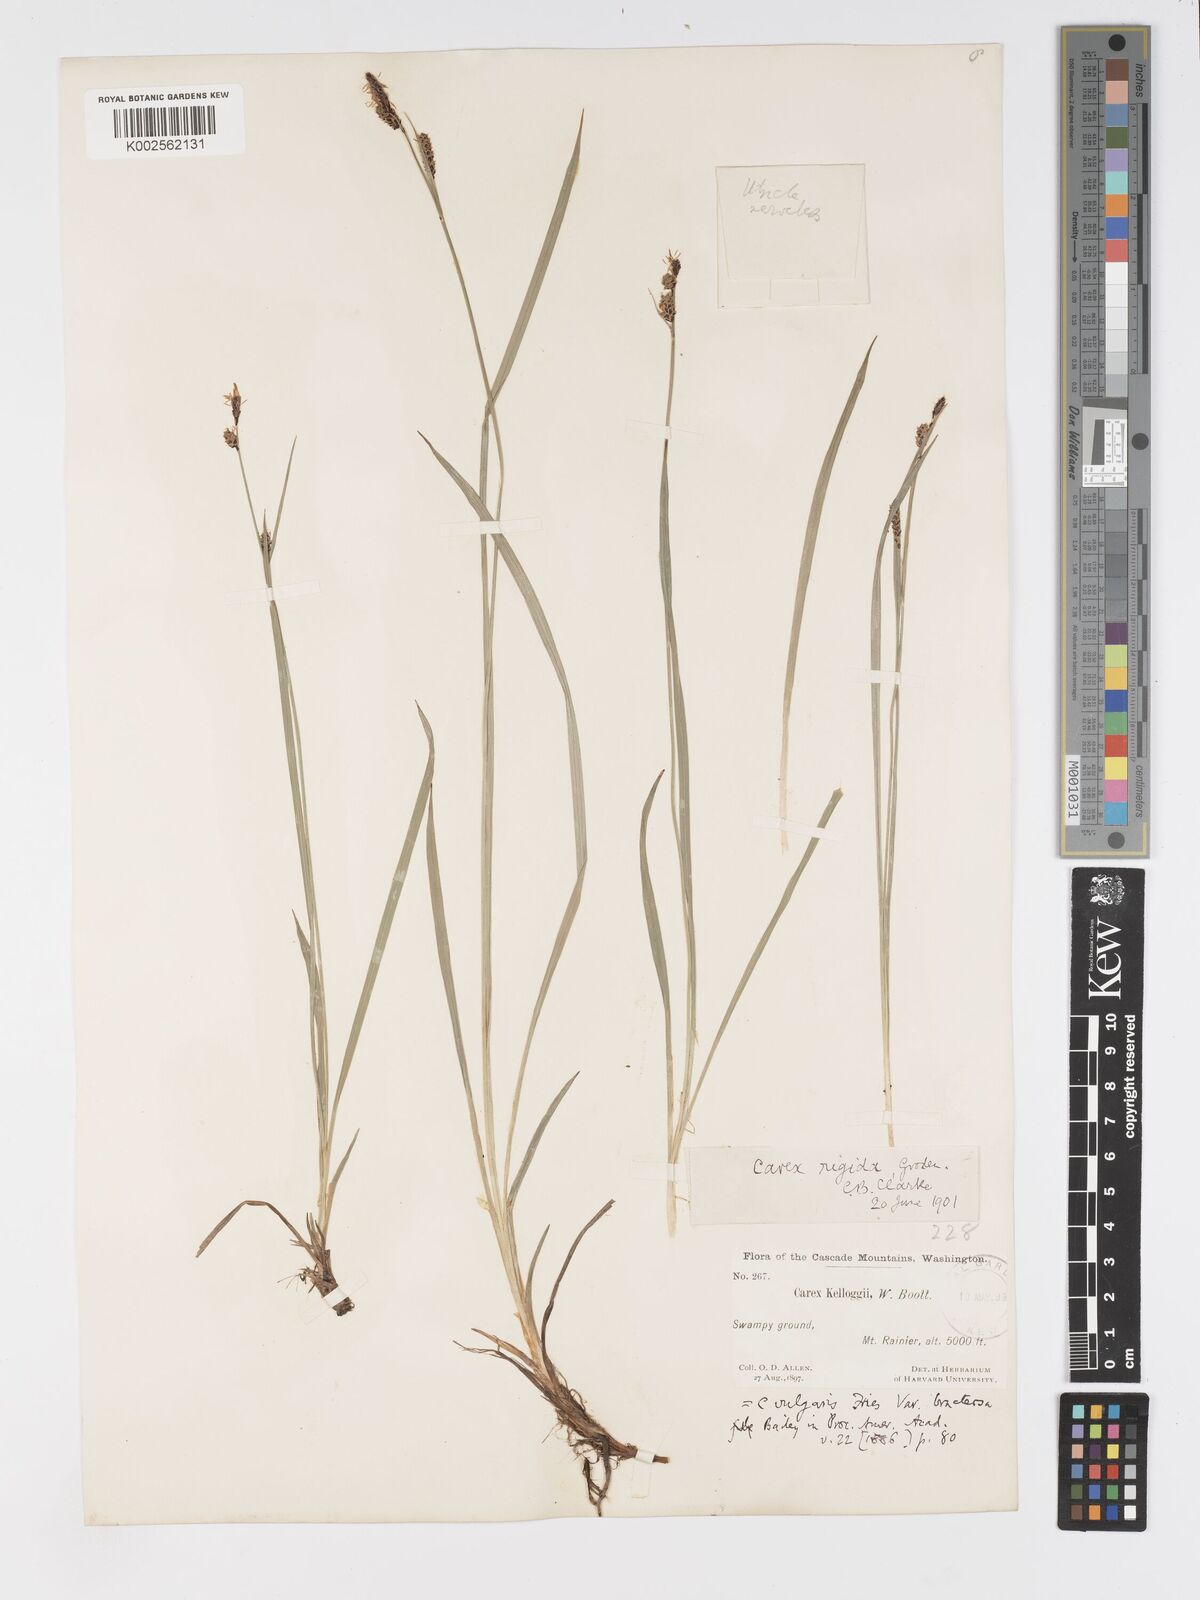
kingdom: Plantae
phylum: Tracheophyta
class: Liliopsida
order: Poales
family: Cyperaceae
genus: Carex
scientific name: Carex kelloggii
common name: Kellogg's sedge
